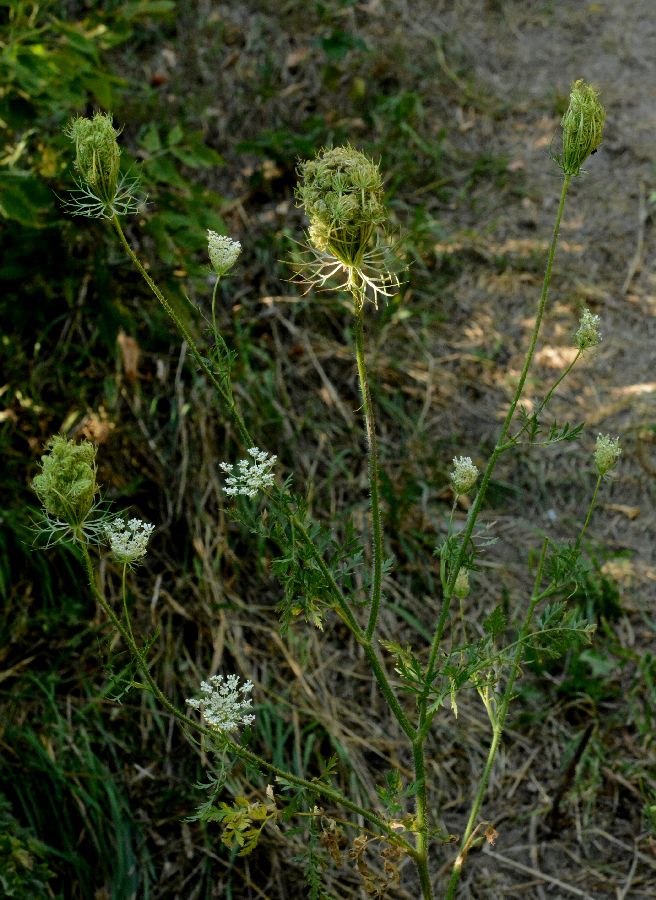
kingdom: Plantae
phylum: Tracheophyta
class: Magnoliopsida
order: Apiales
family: Apiaceae
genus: Daucus
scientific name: Daucus carota
